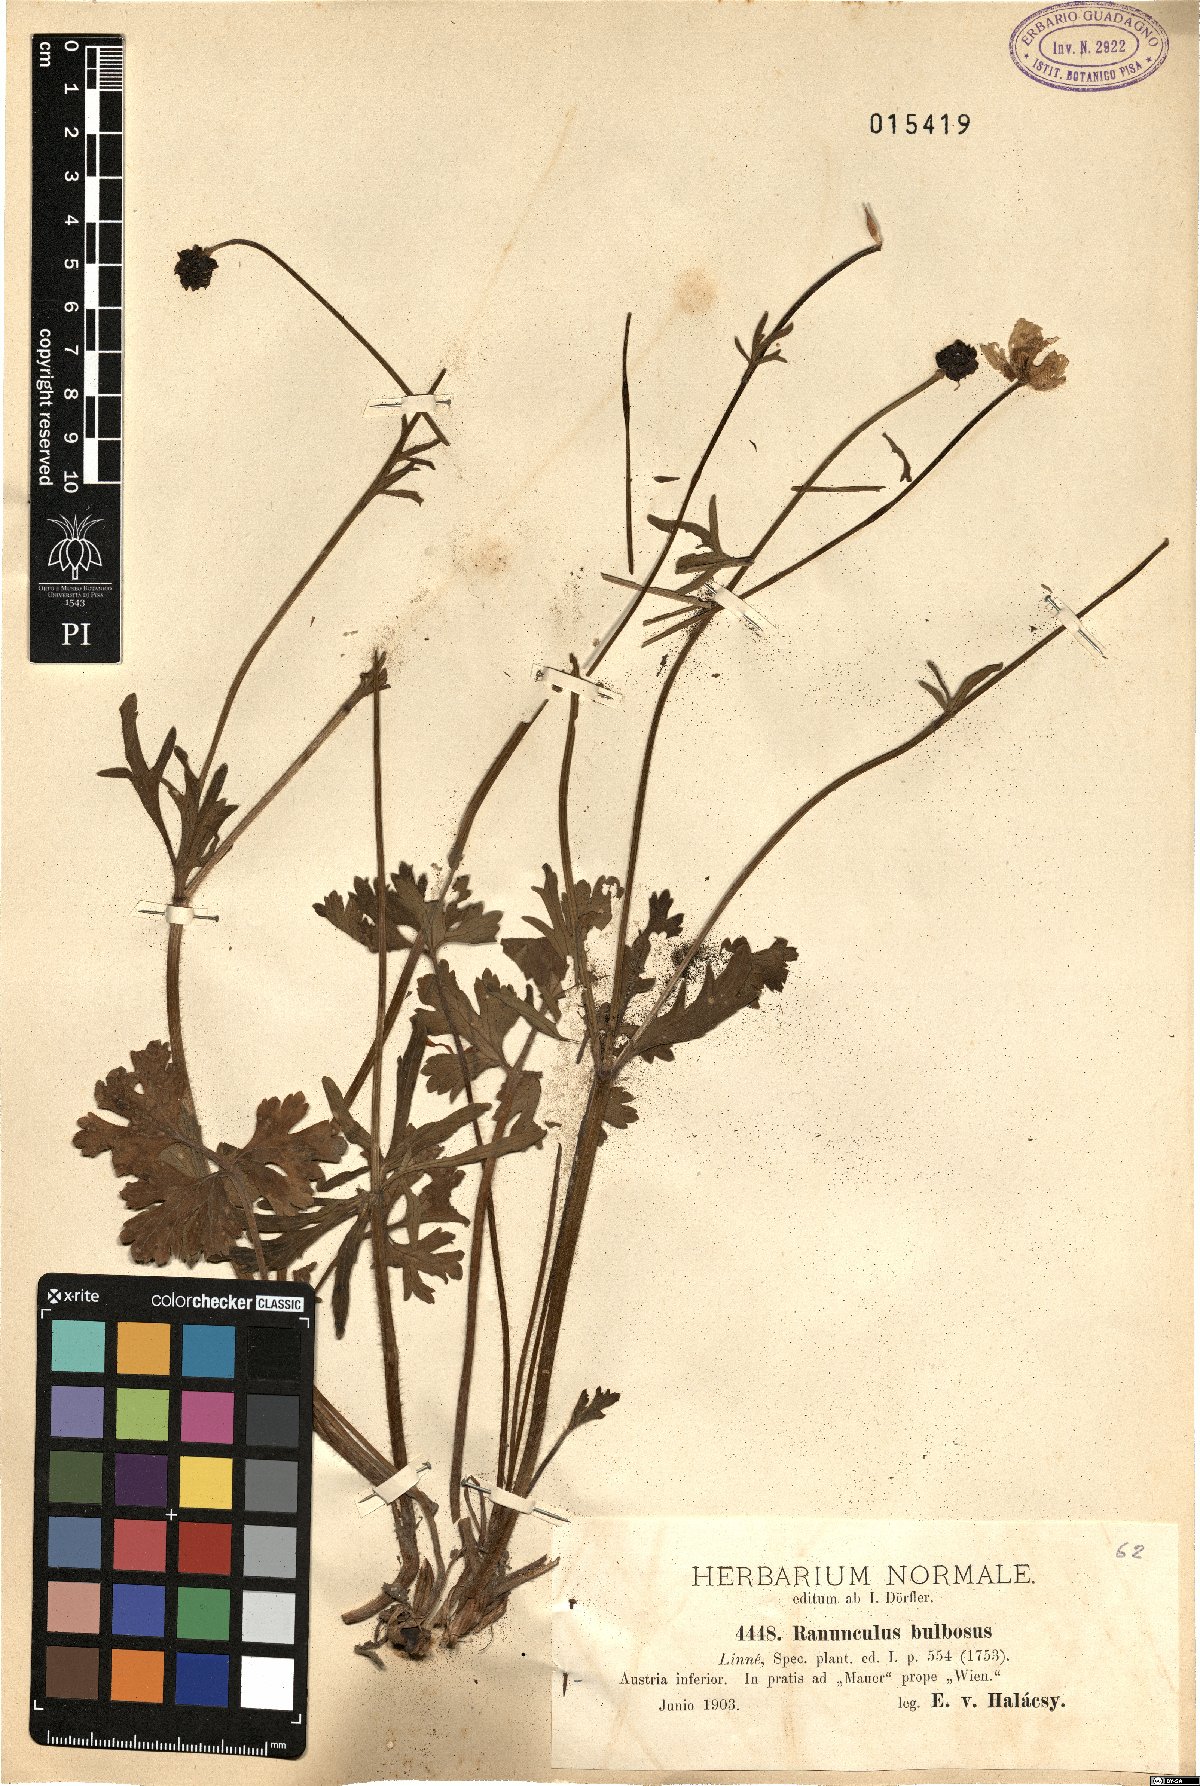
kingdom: Plantae
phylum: Tracheophyta
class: Magnoliopsida
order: Ranunculales
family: Ranunculaceae
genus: Ranunculus
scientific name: Ranunculus bulbosus
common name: Bulbous buttercup
